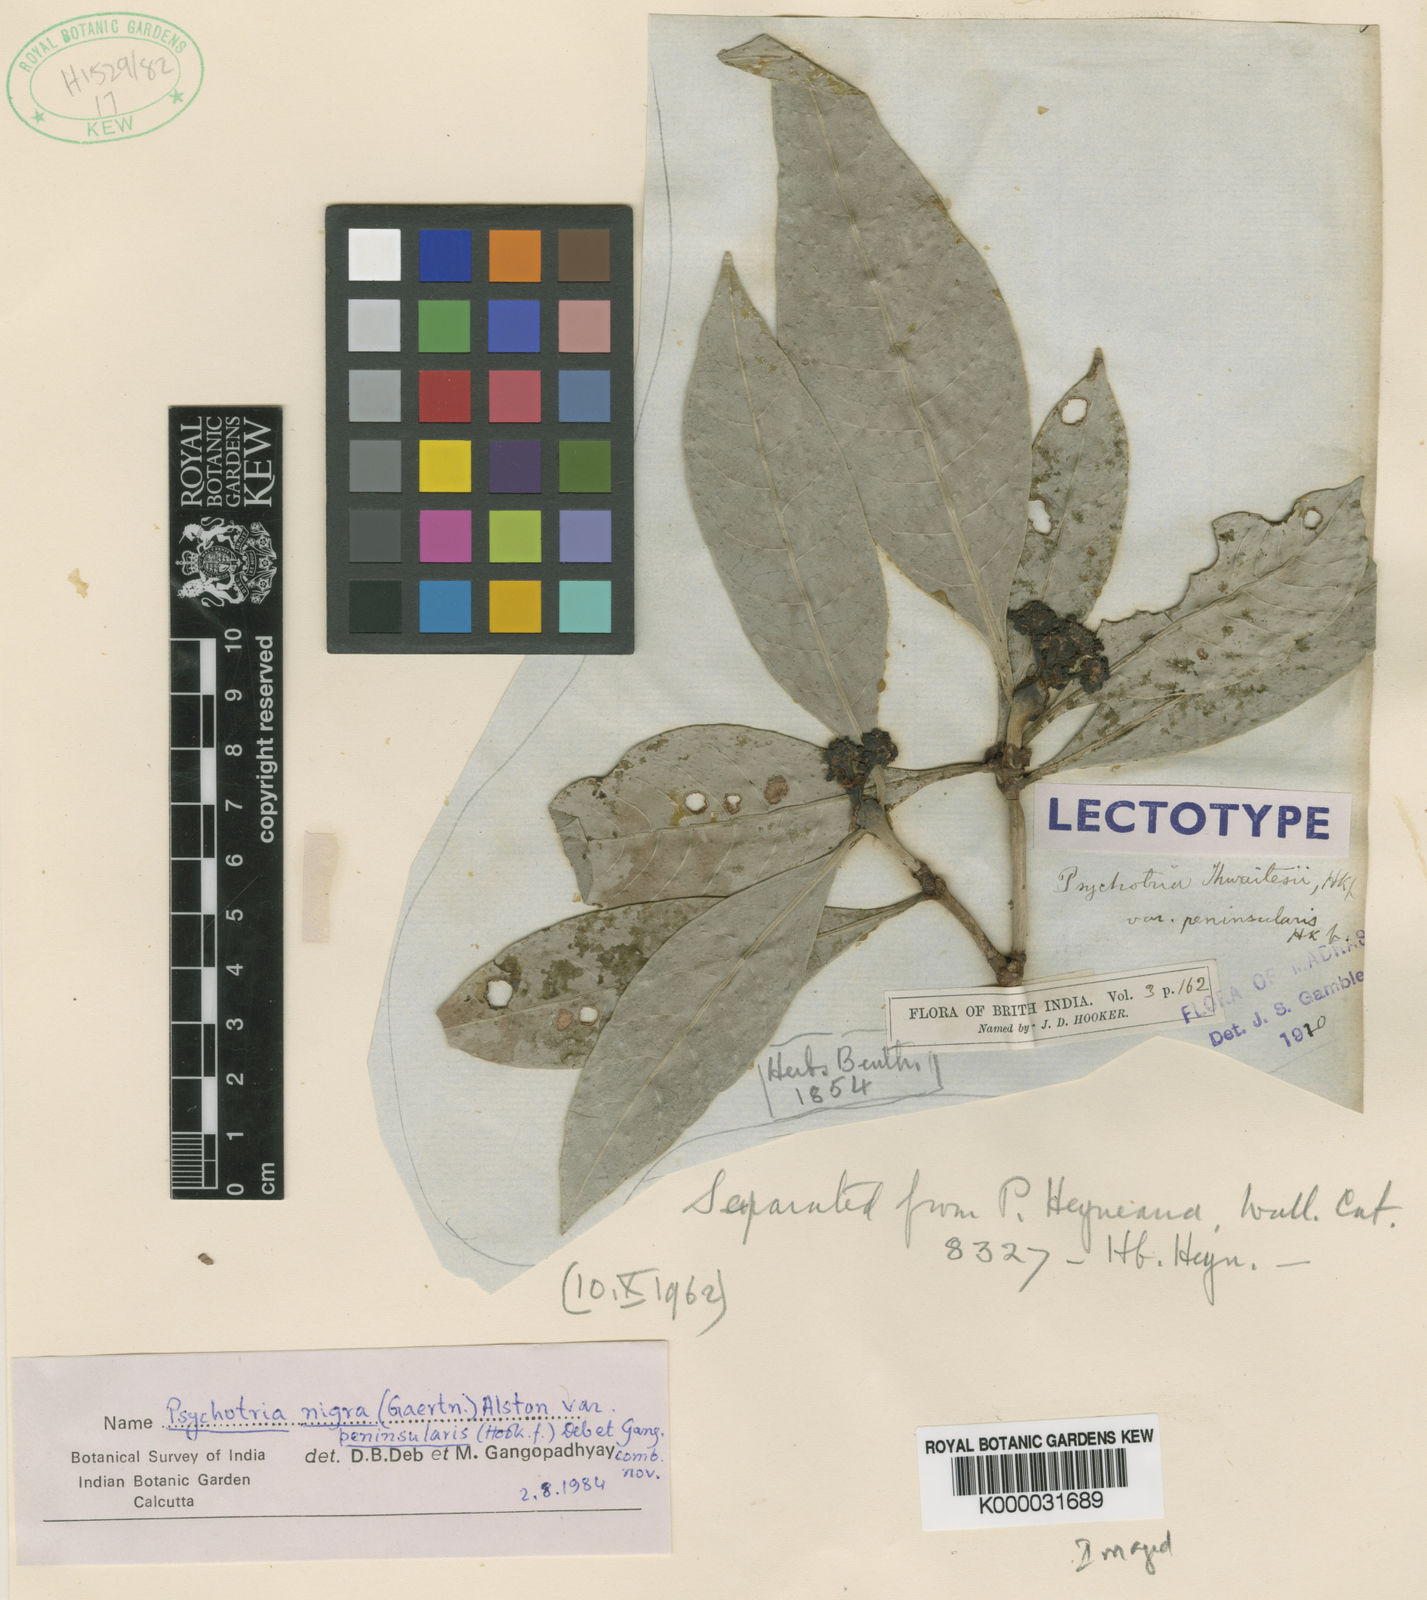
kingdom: Plantae
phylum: Tracheophyta
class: Magnoliopsida
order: Gentianales
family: Rubiaceae
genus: Psychotria
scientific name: Psychotria nigra
